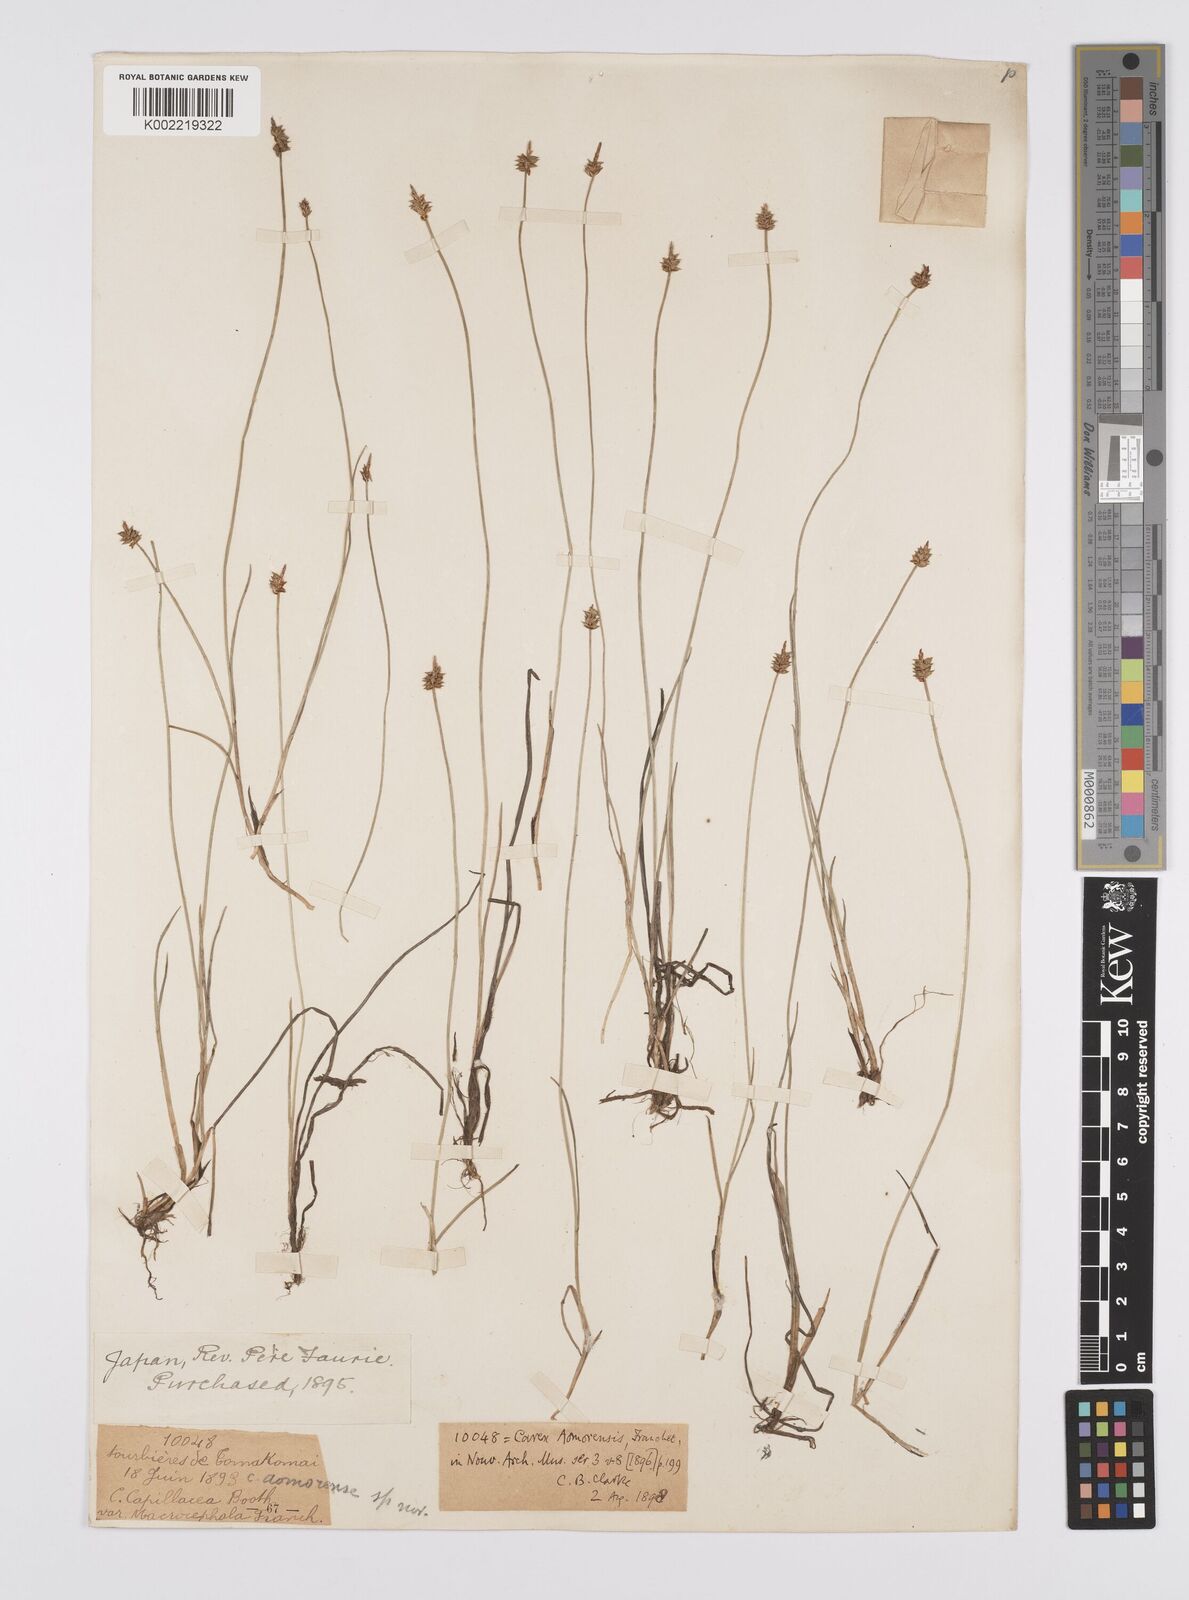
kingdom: Plantae
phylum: Tracheophyta
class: Liliopsida
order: Poales
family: Cyperaceae
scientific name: Cyperaceae
